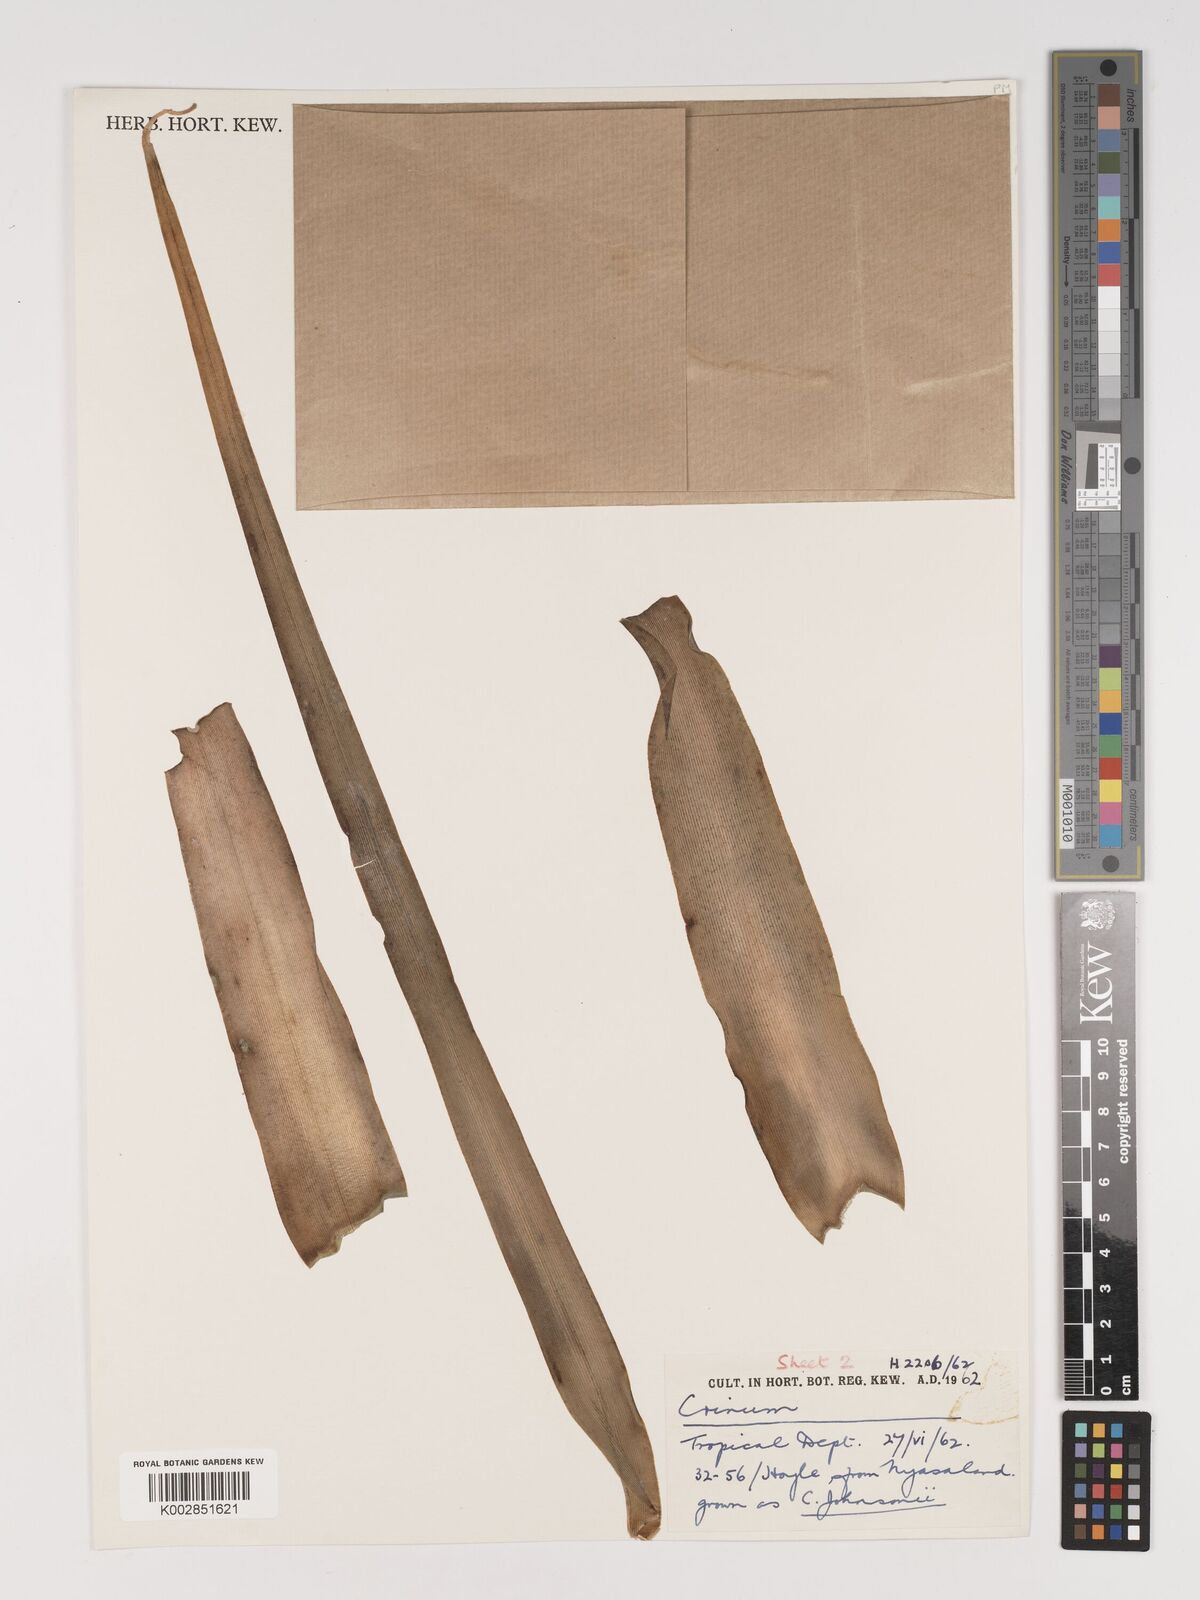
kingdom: Plantae
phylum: Tracheophyta
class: Liliopsida
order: Asparagales
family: Amaryllidaceae
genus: Crinum
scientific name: Crinum macowanii
